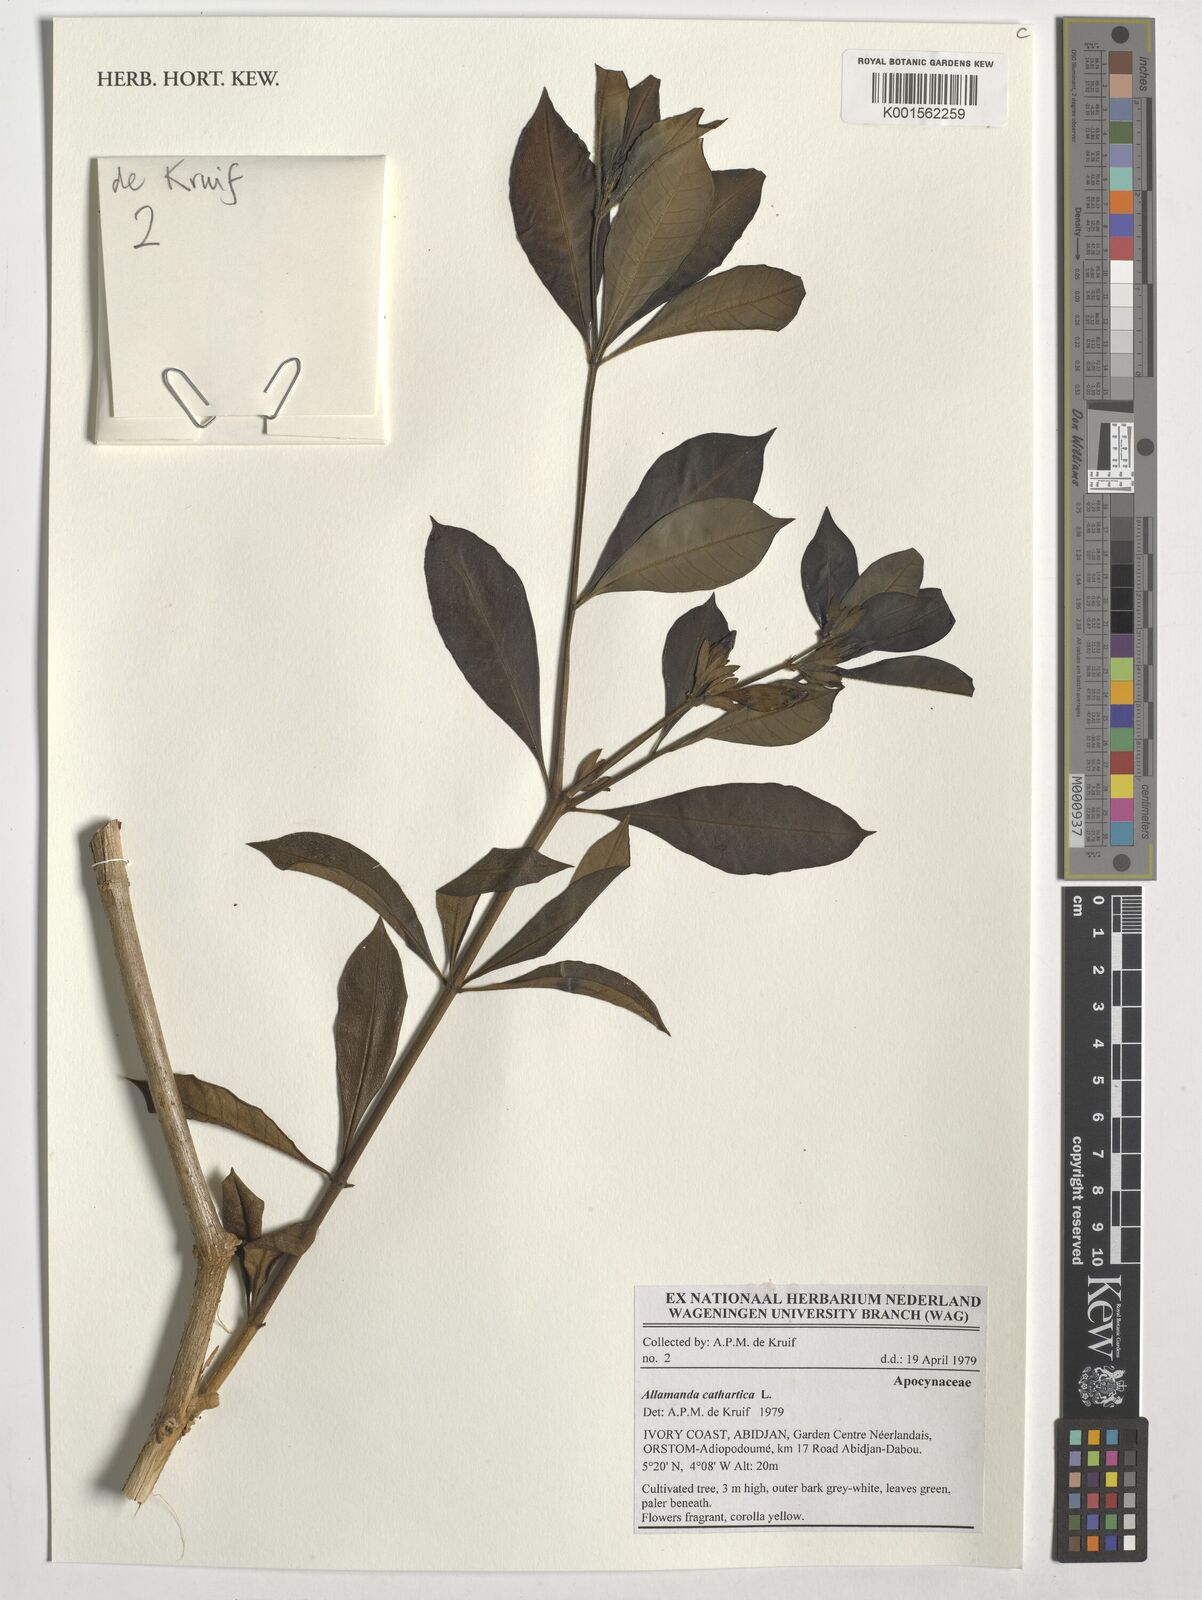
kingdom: Plantae
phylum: Tracheophyta
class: Magnoliopsida
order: Gentianales
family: Apocynaceae
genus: Allamanda
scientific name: Allamanda cathartica
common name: Golden trumpet
